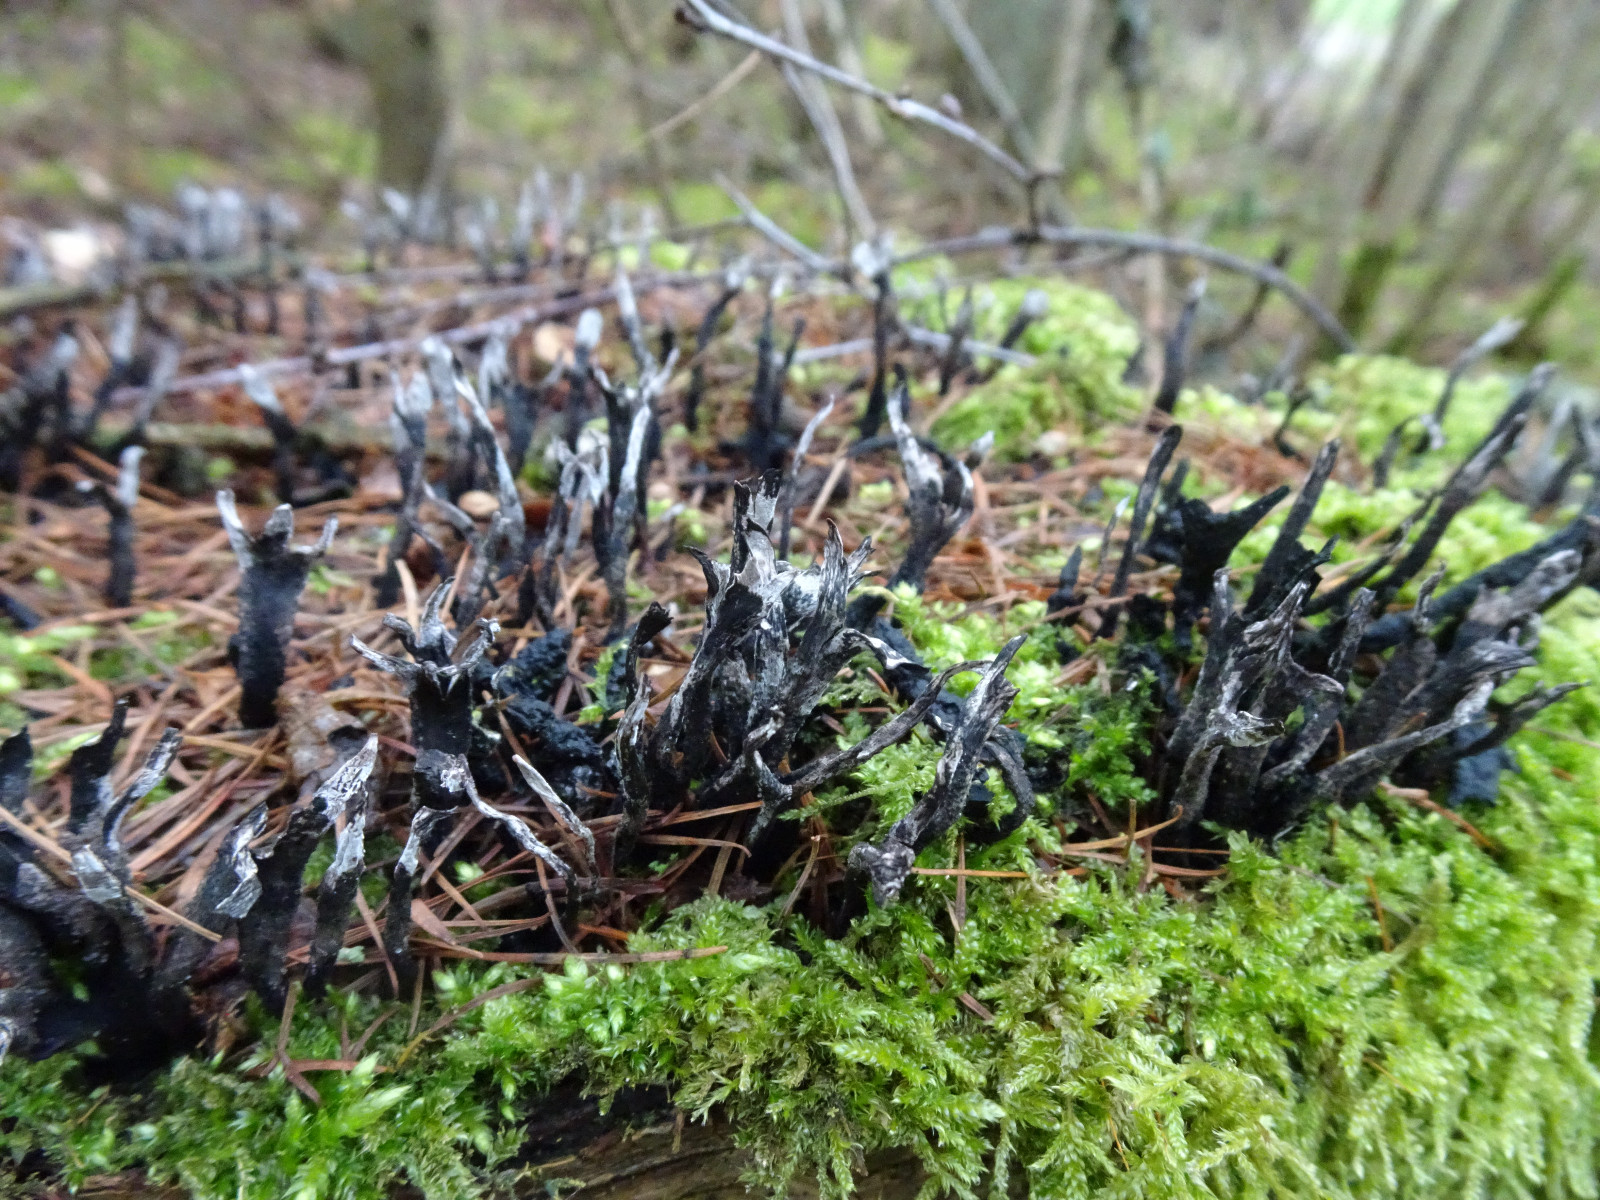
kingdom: Fungi
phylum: Ascomycota
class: Sordariomycetes
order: Xylariales
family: Xylariaceae
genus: Xylaria
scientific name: Xylaria hypoxylon
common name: grenet stødsvamp
